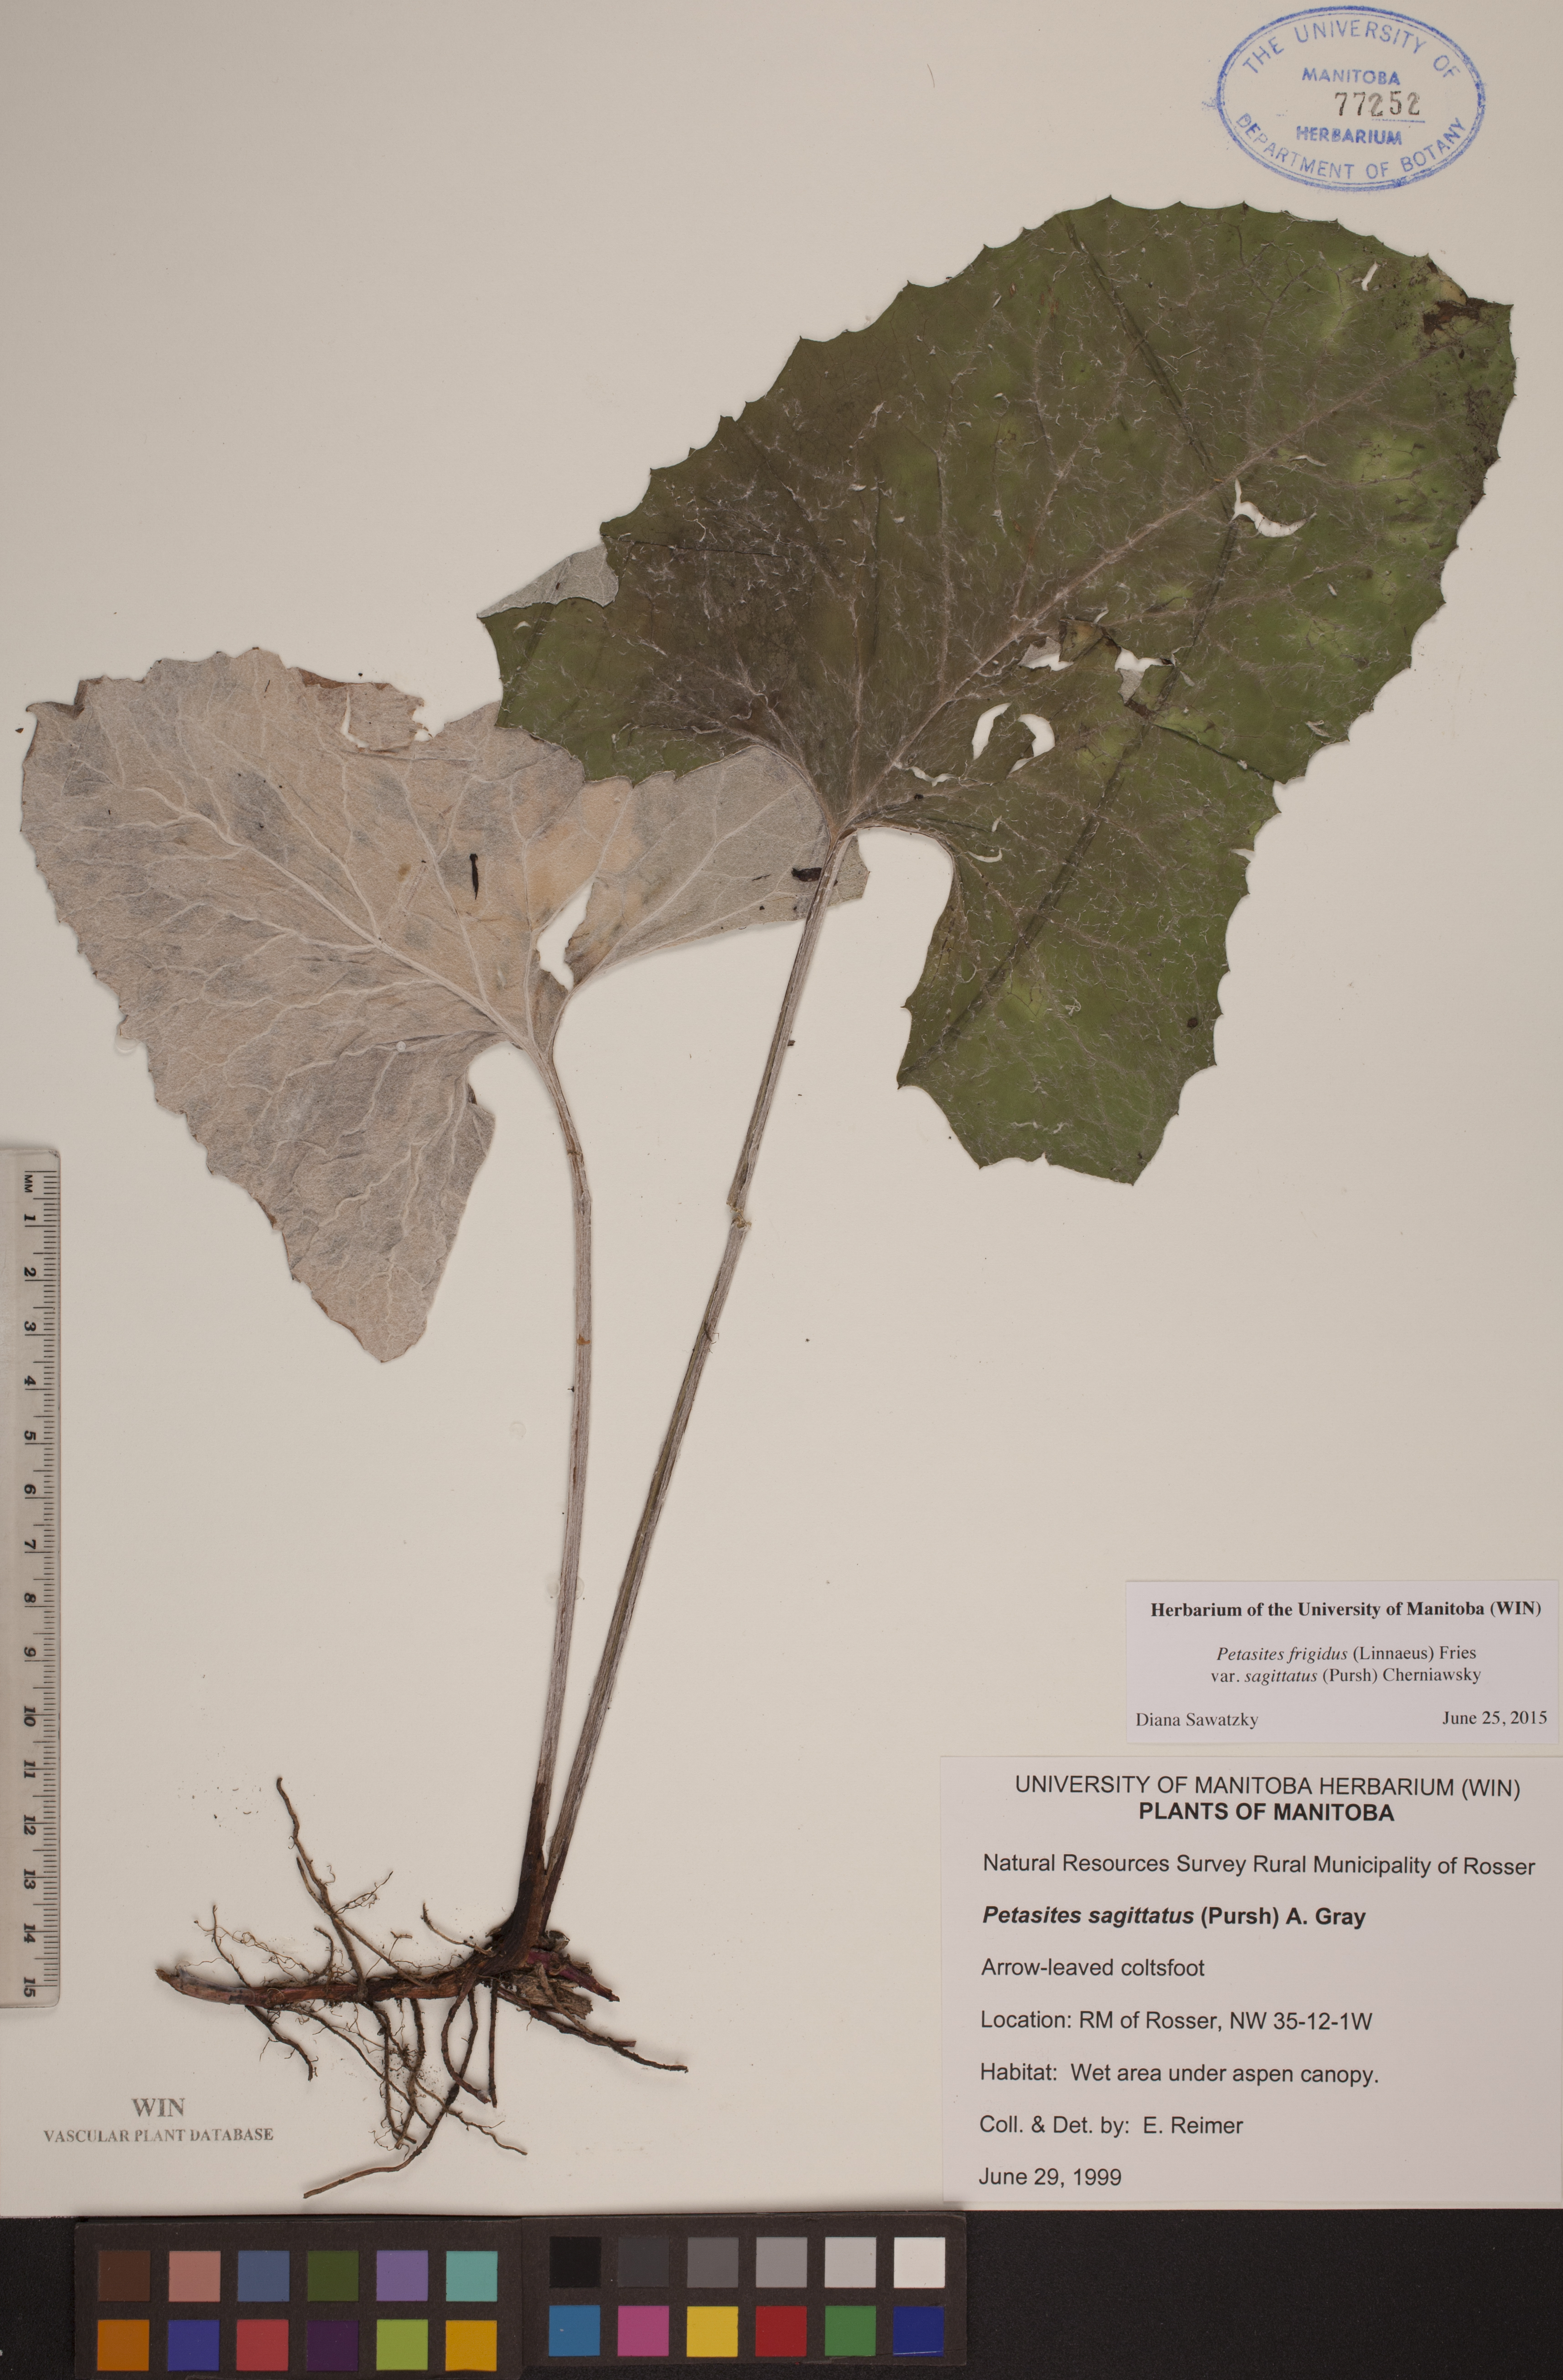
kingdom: Plantae
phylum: Tracheophyta
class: Magnoliopsida
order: Asterales
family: Asteraceae
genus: Petasites
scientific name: Petasites frigidus
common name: Arctic butterbur
